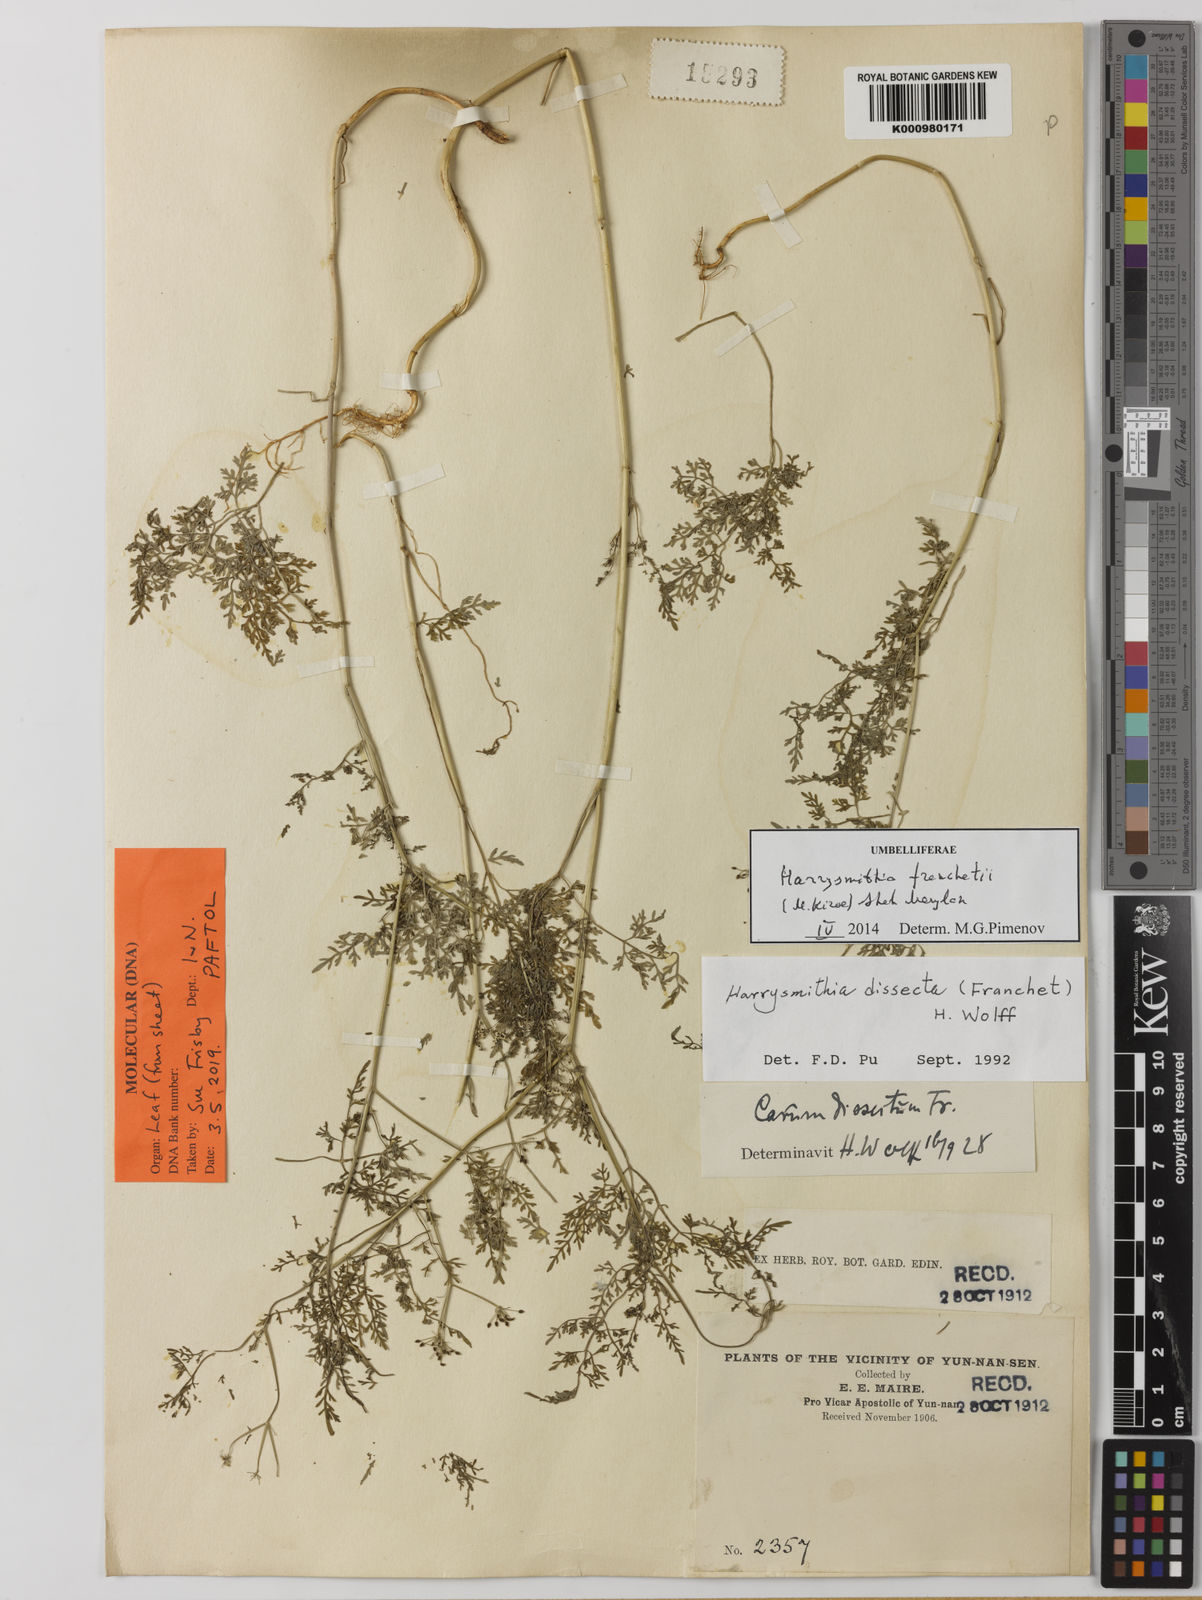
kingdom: Plantae
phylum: Tracheophyta
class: Magnoliopsida
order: Apiales
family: Apiaceae
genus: Harrysmithia
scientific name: Harrysmithia
